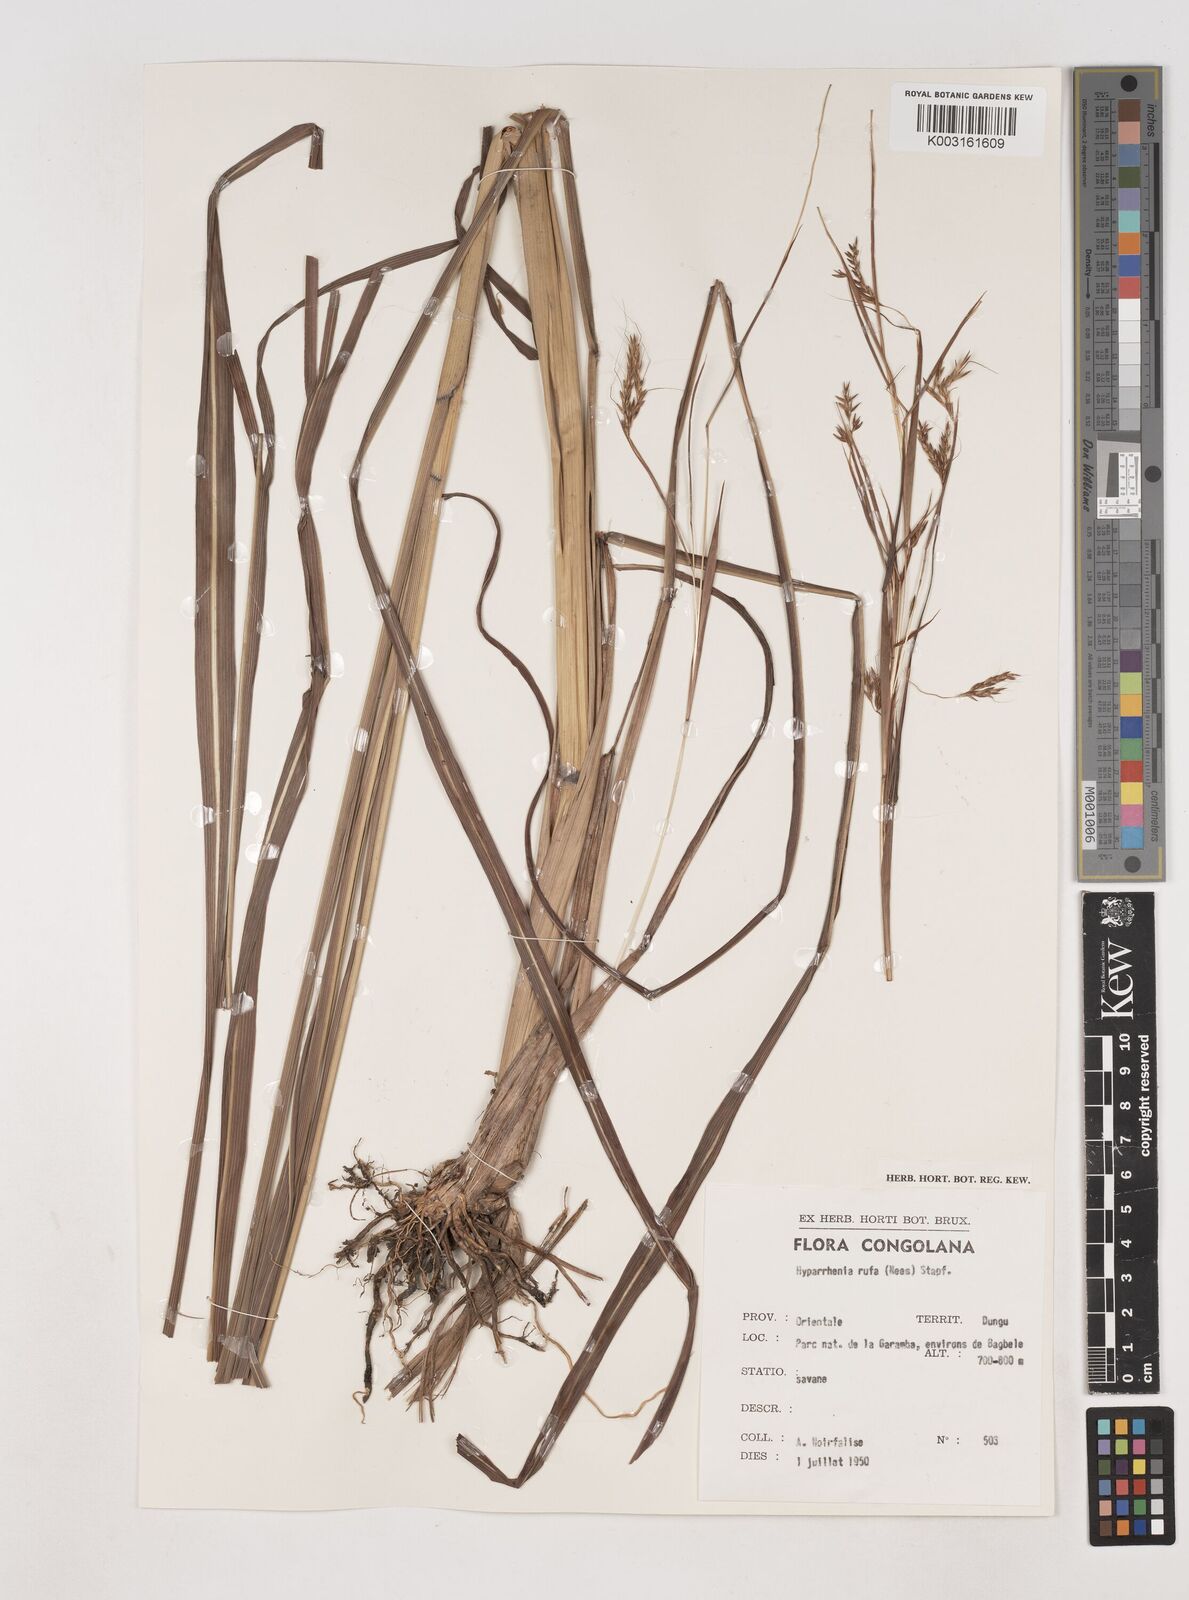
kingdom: Plantae
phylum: Tracheophyta
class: Liliopsida
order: Poales
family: Poaceae
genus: Hyparrhenia
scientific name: Hyparrhenia rufa
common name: Jaraguagrass
